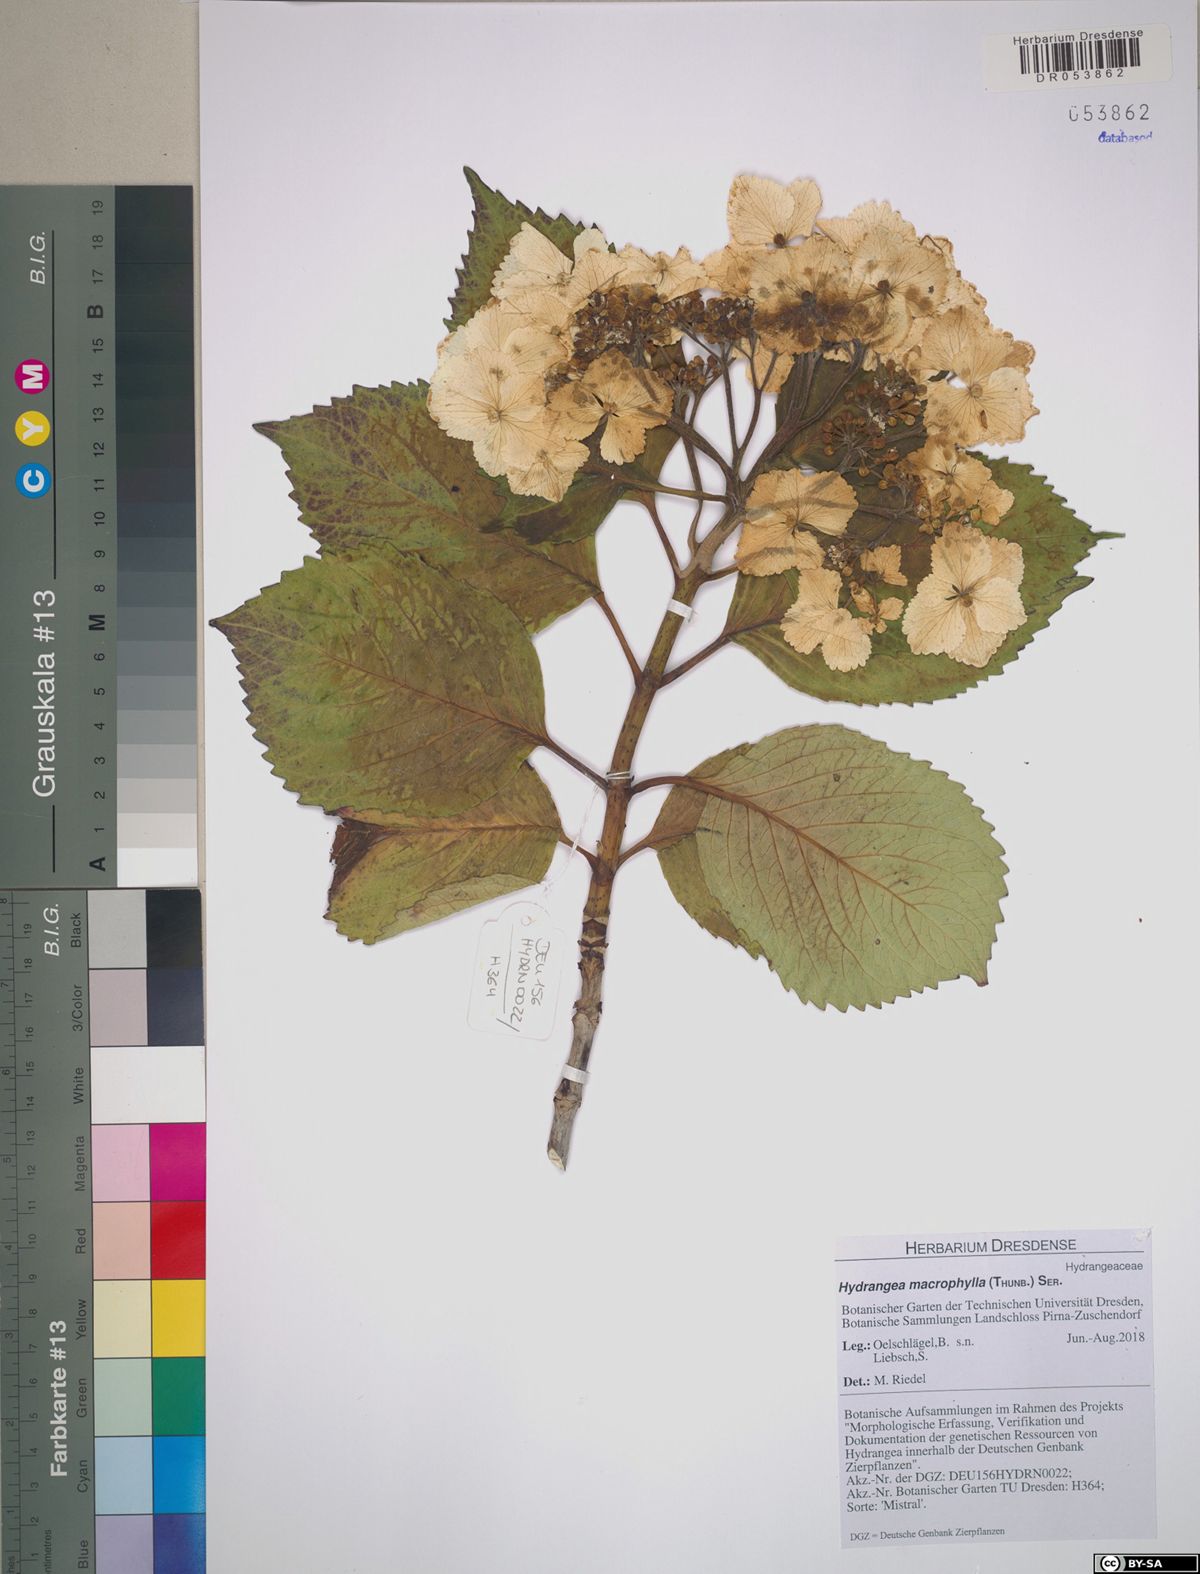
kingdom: Plantae
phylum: Tracheophyta
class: Magnoliopsida
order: Cornales
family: Hydrangeaceae
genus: Hydrangea
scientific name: Hydrangea macrophylla
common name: Hydrangea
